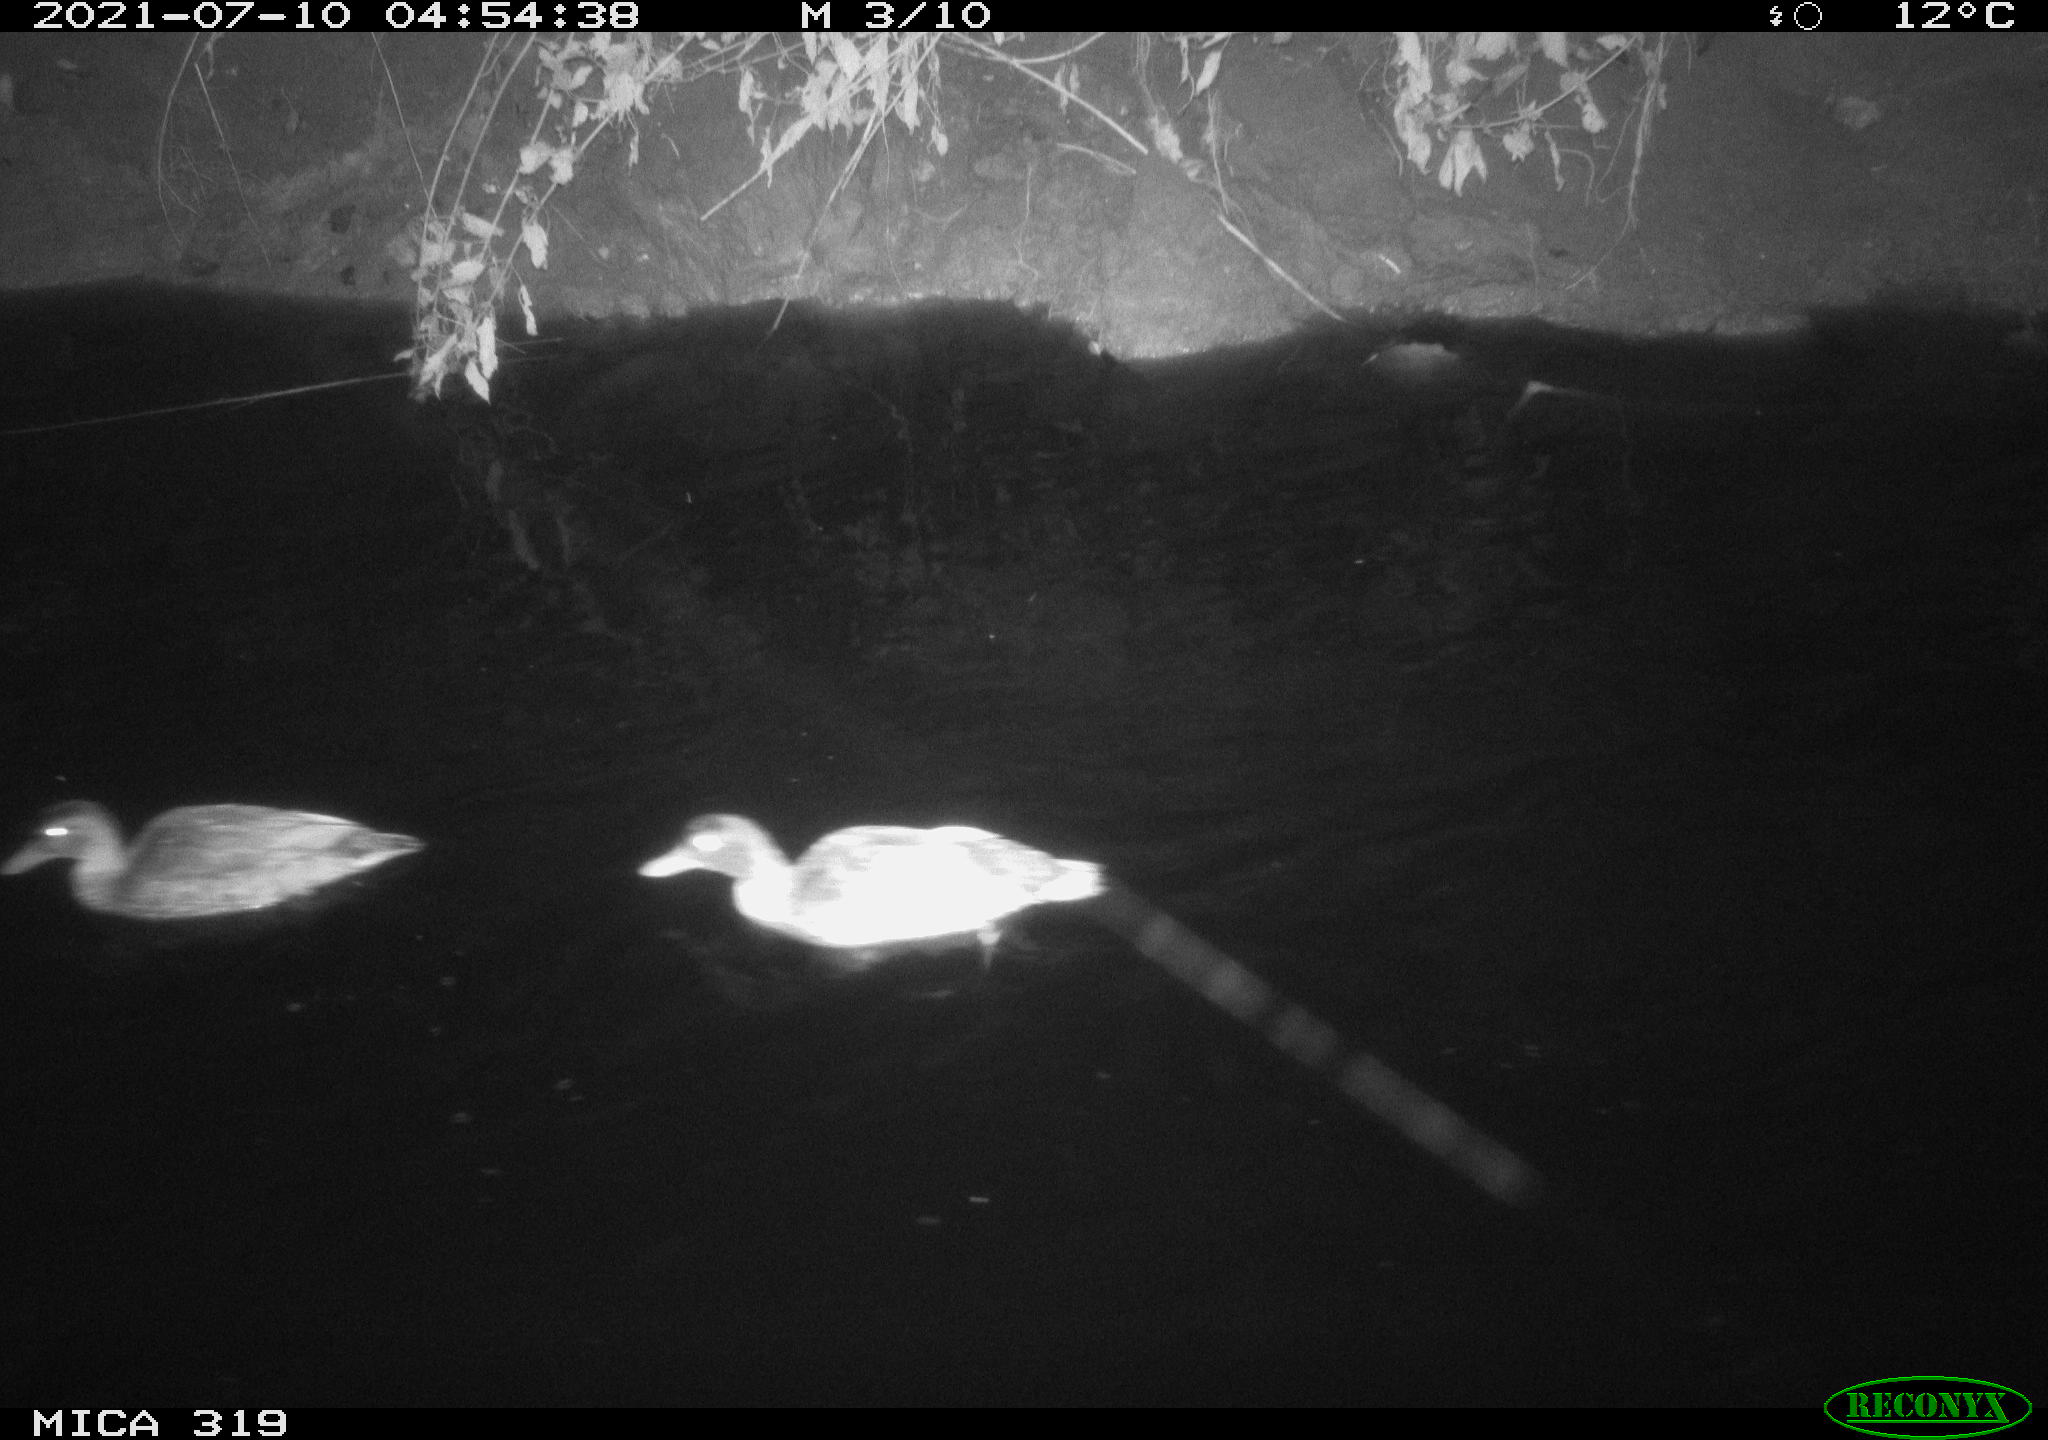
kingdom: Animalia
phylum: Chordata
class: Aves
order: Anseriformes
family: Anatidae
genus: Anas
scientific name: Anas platyrhynchos
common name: Mallard
